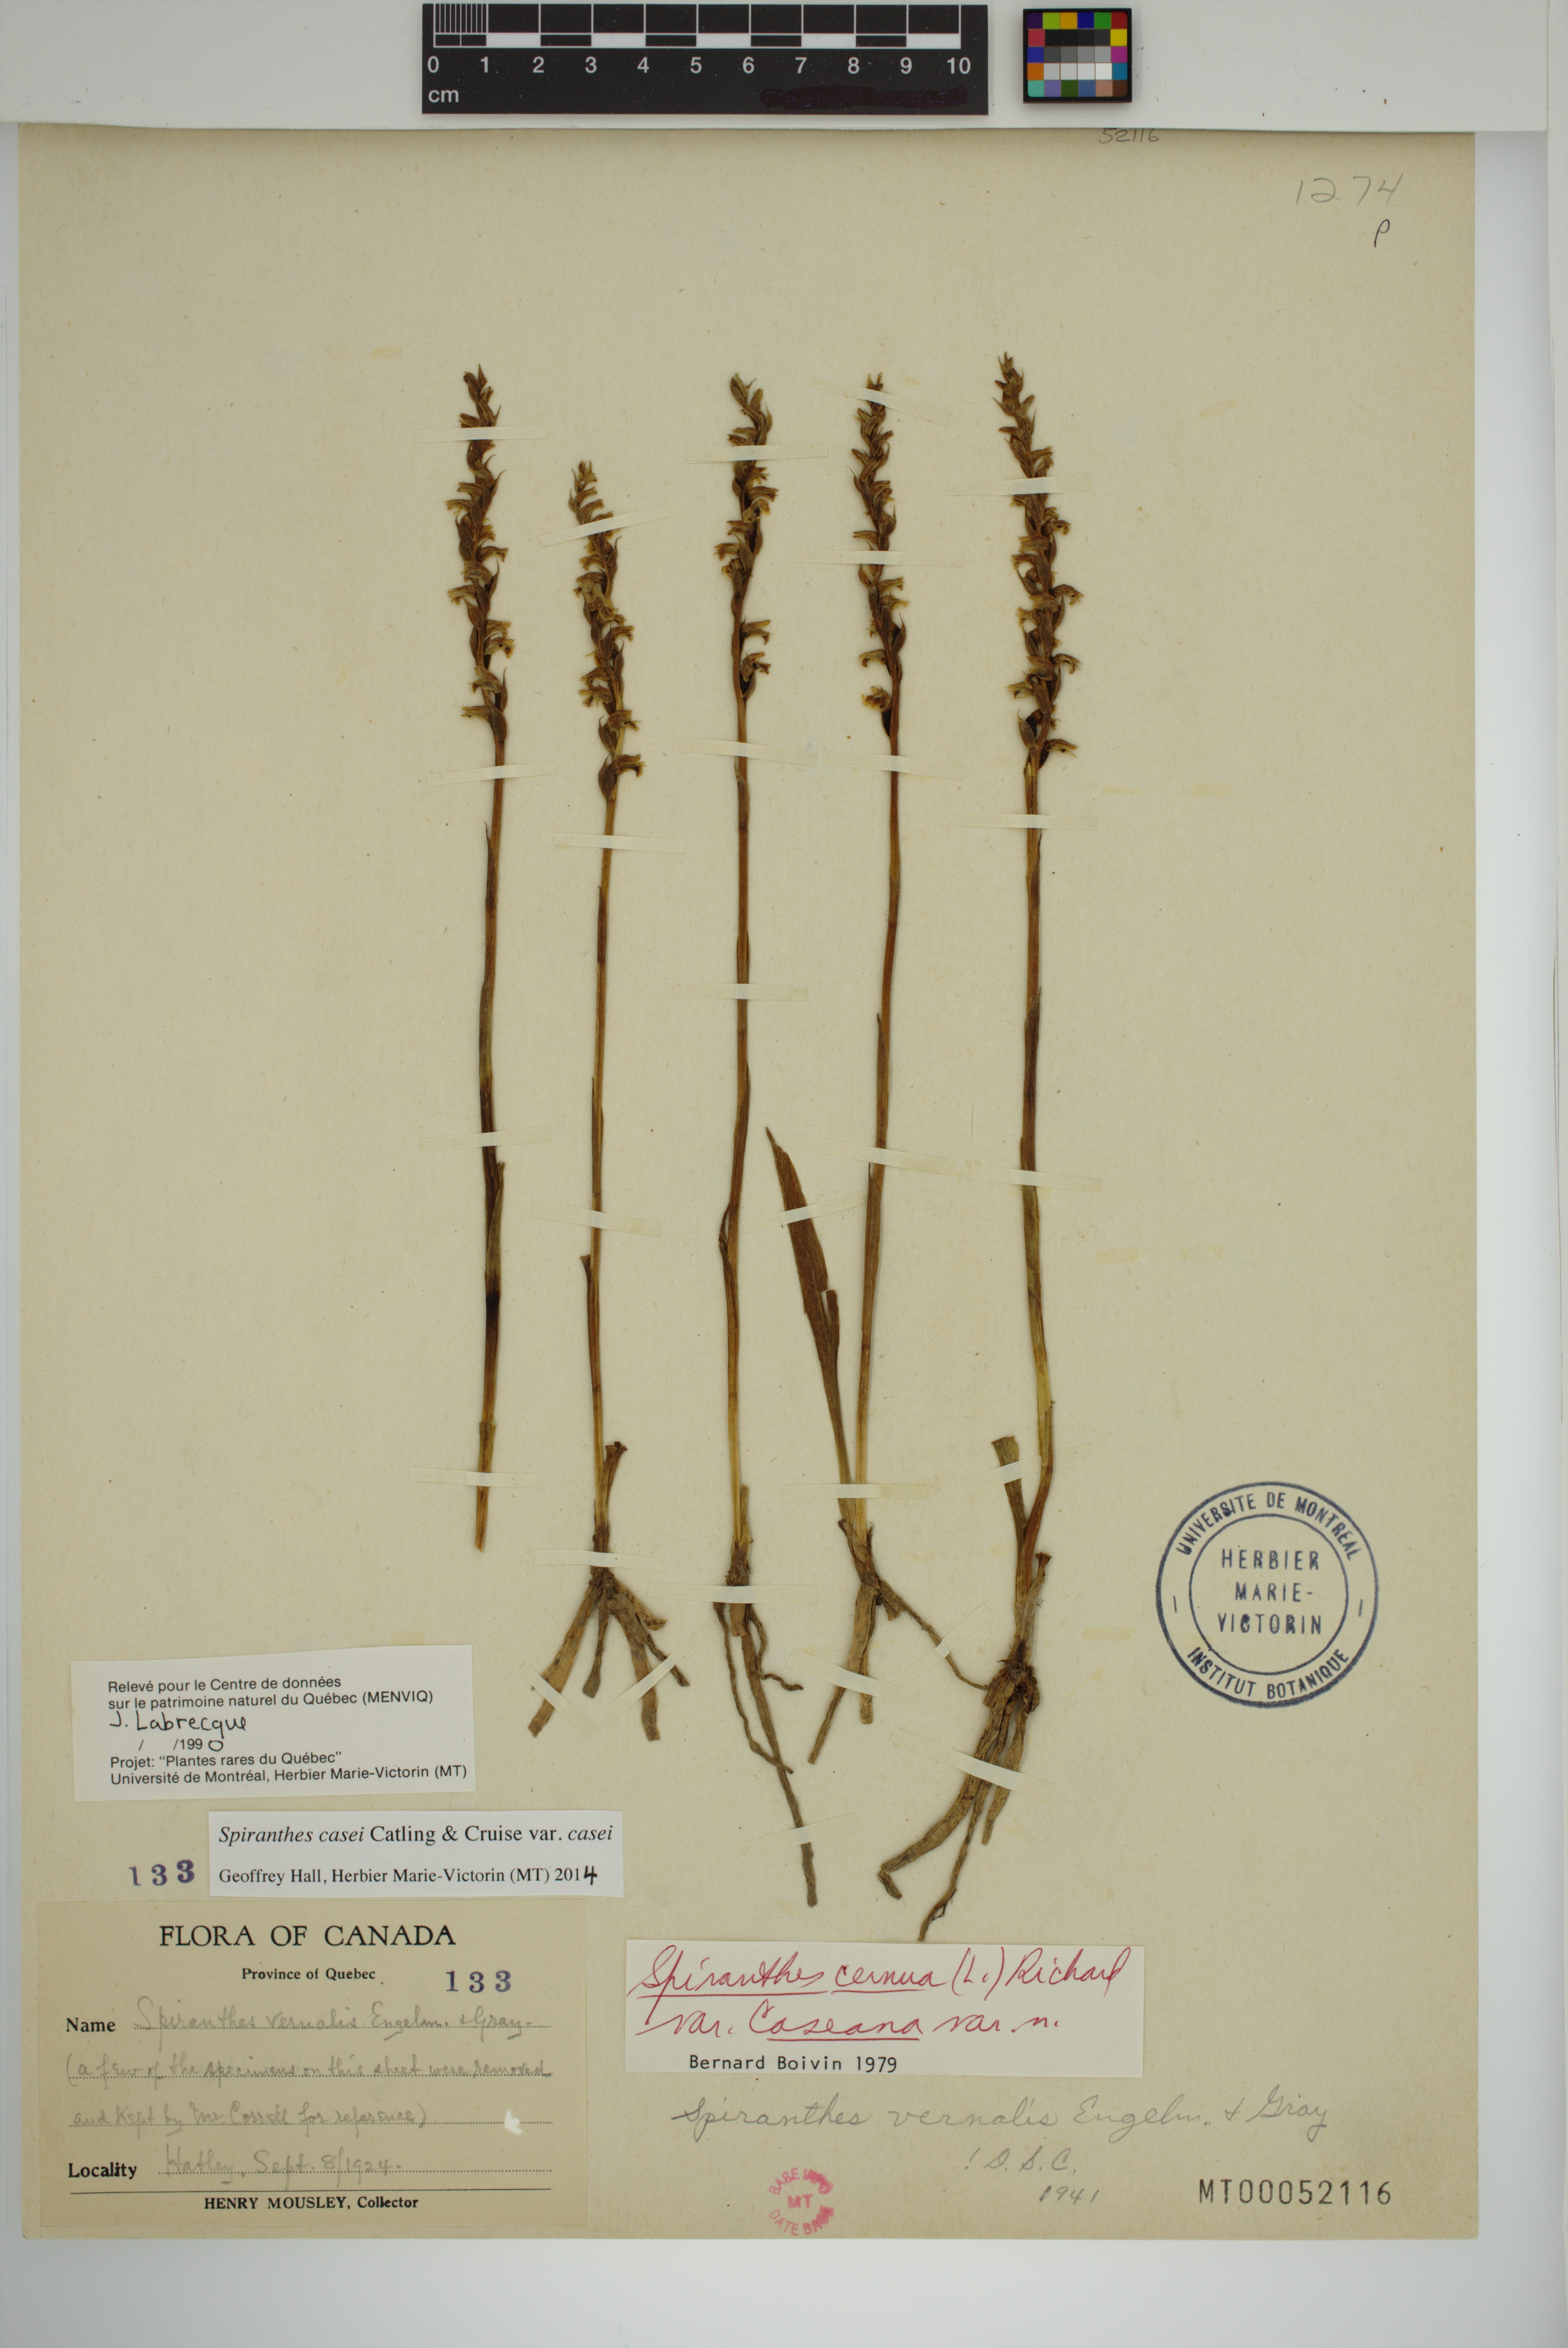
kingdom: Plantae
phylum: Tracheophyta
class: Liliopsida
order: Asparagales
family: Orchidaceae
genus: Spiranthes
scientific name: Spiranthes casei
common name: Case's ladies'-tresses
